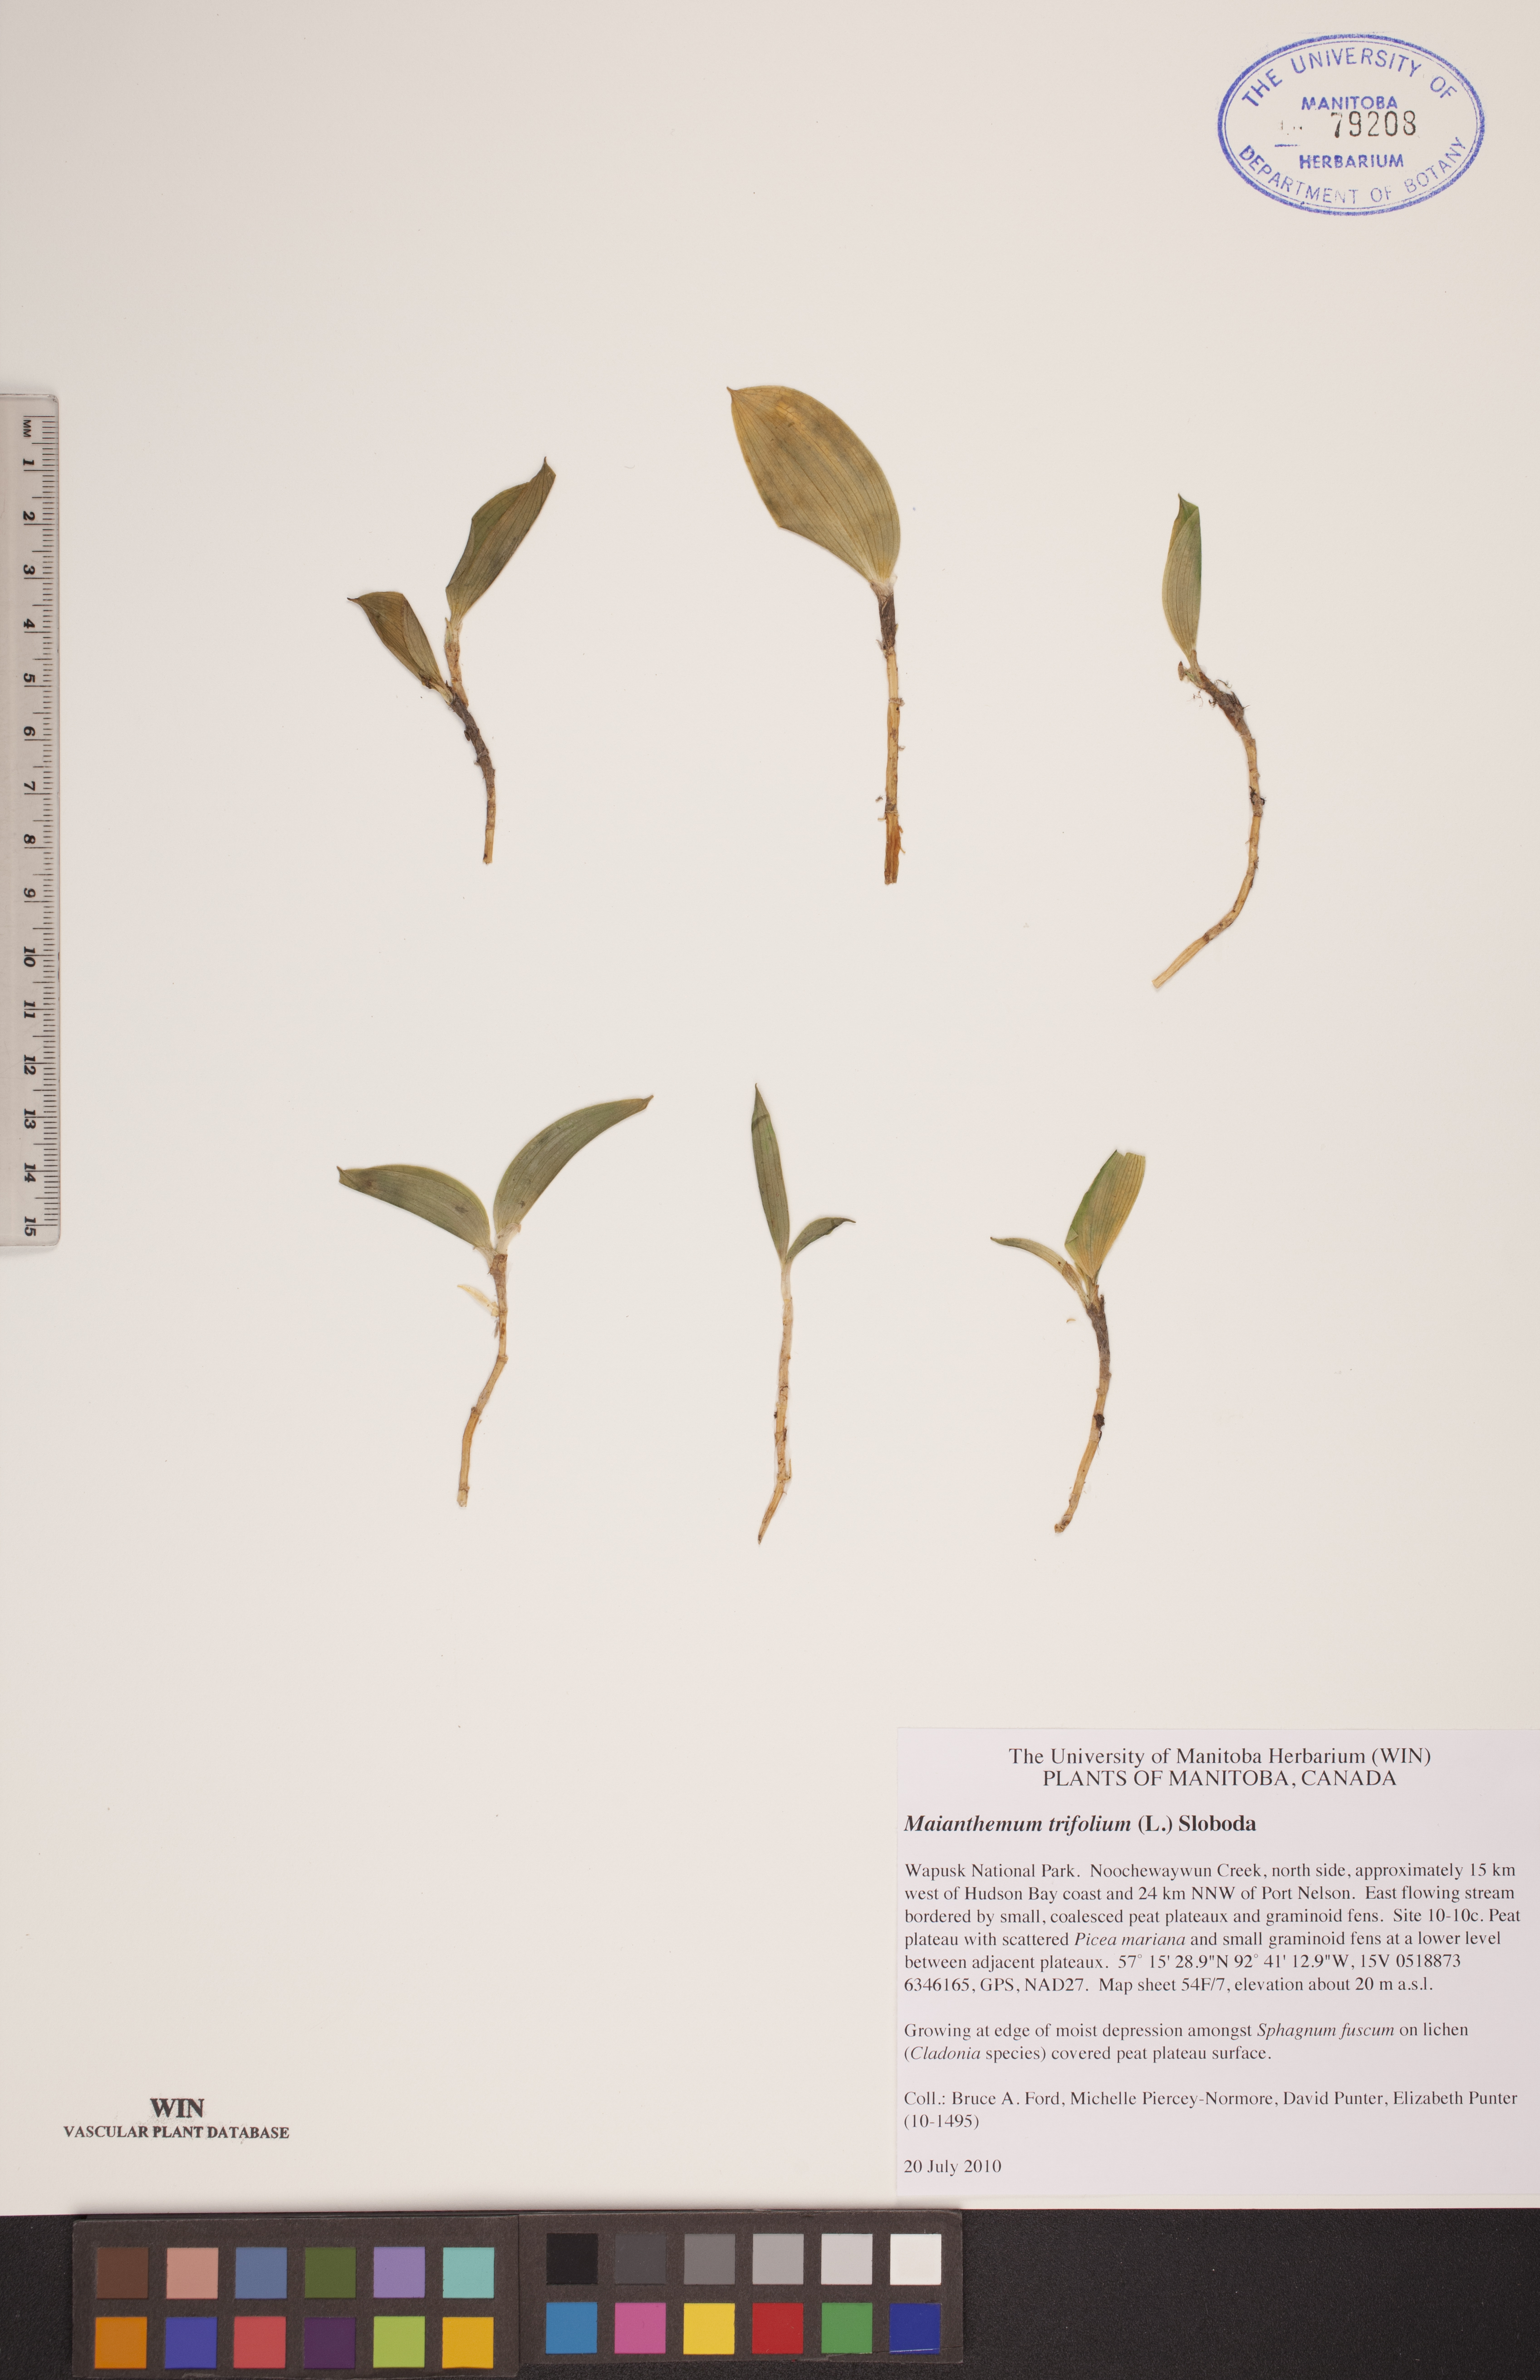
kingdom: Plantae
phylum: Tracheophyta
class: Liliopsida
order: Asparagales
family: Asparagaceae
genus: Maianthemum
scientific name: Maianthemum trifolium
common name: Swamp false solomon's seal
